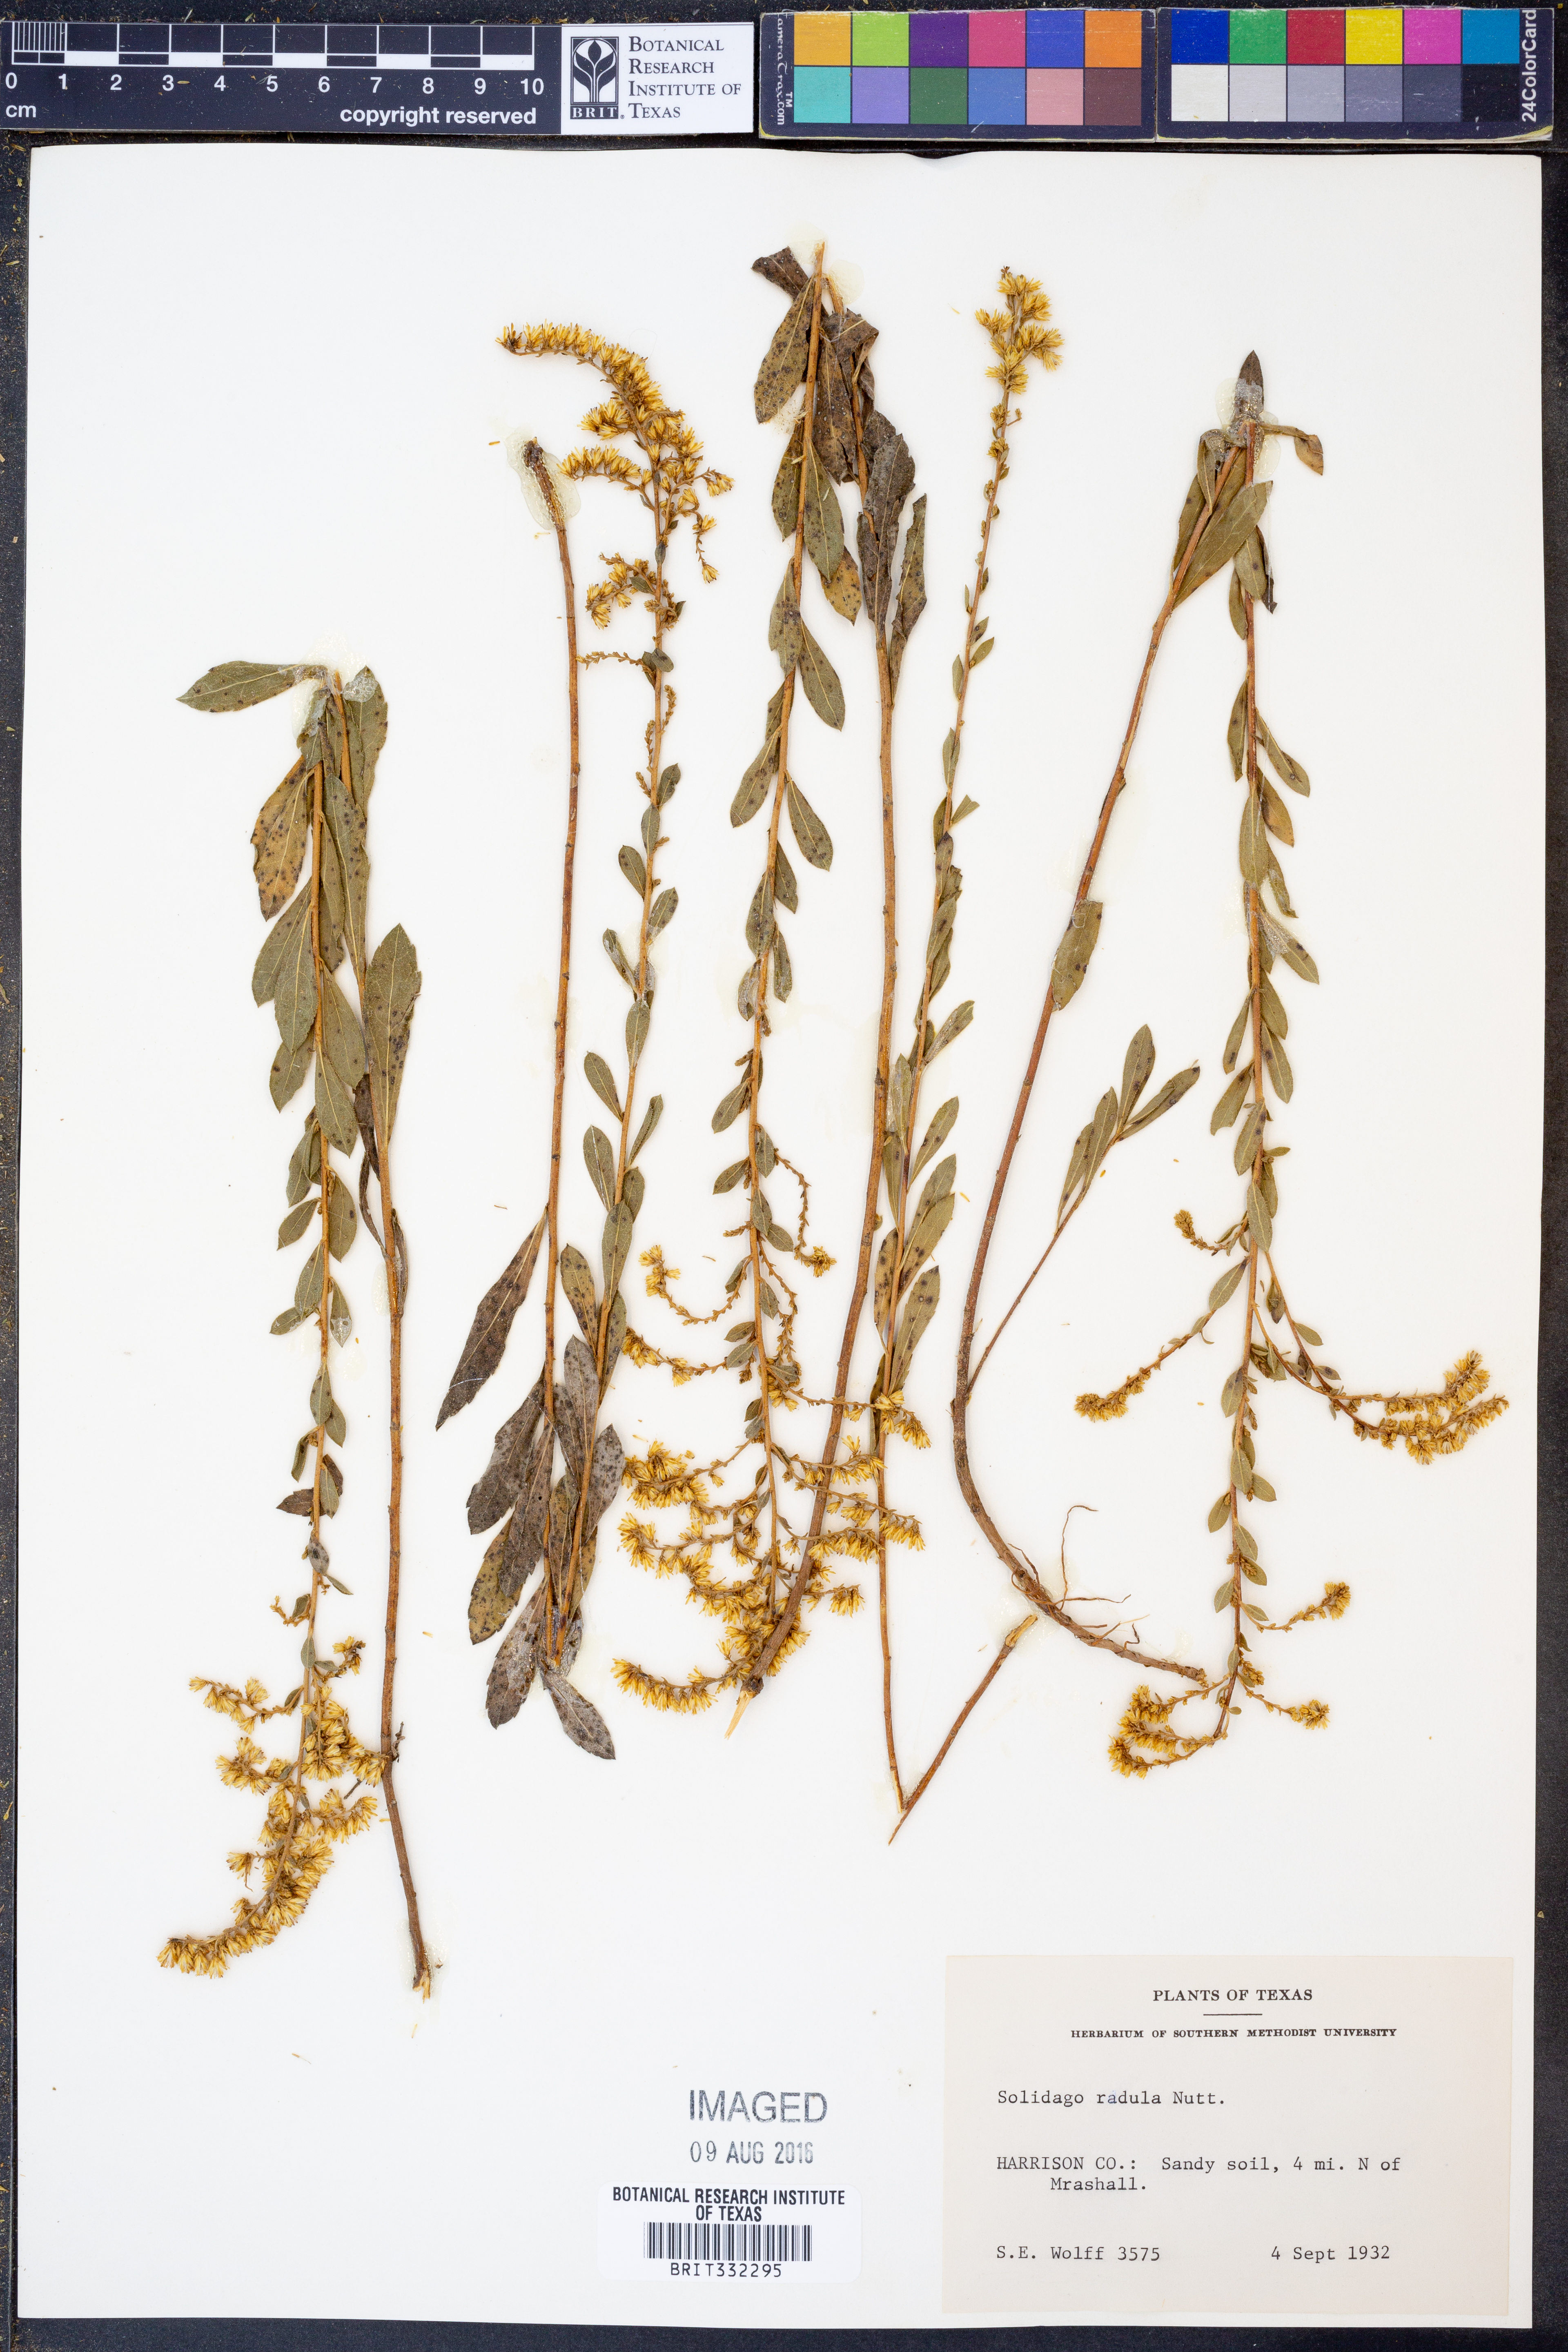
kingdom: Plantae
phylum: Tracheophyta
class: Magnoliopsida
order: Asterales
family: Asteraceae
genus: Solidago
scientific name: Solidago radula
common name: Western rough goldenrod
